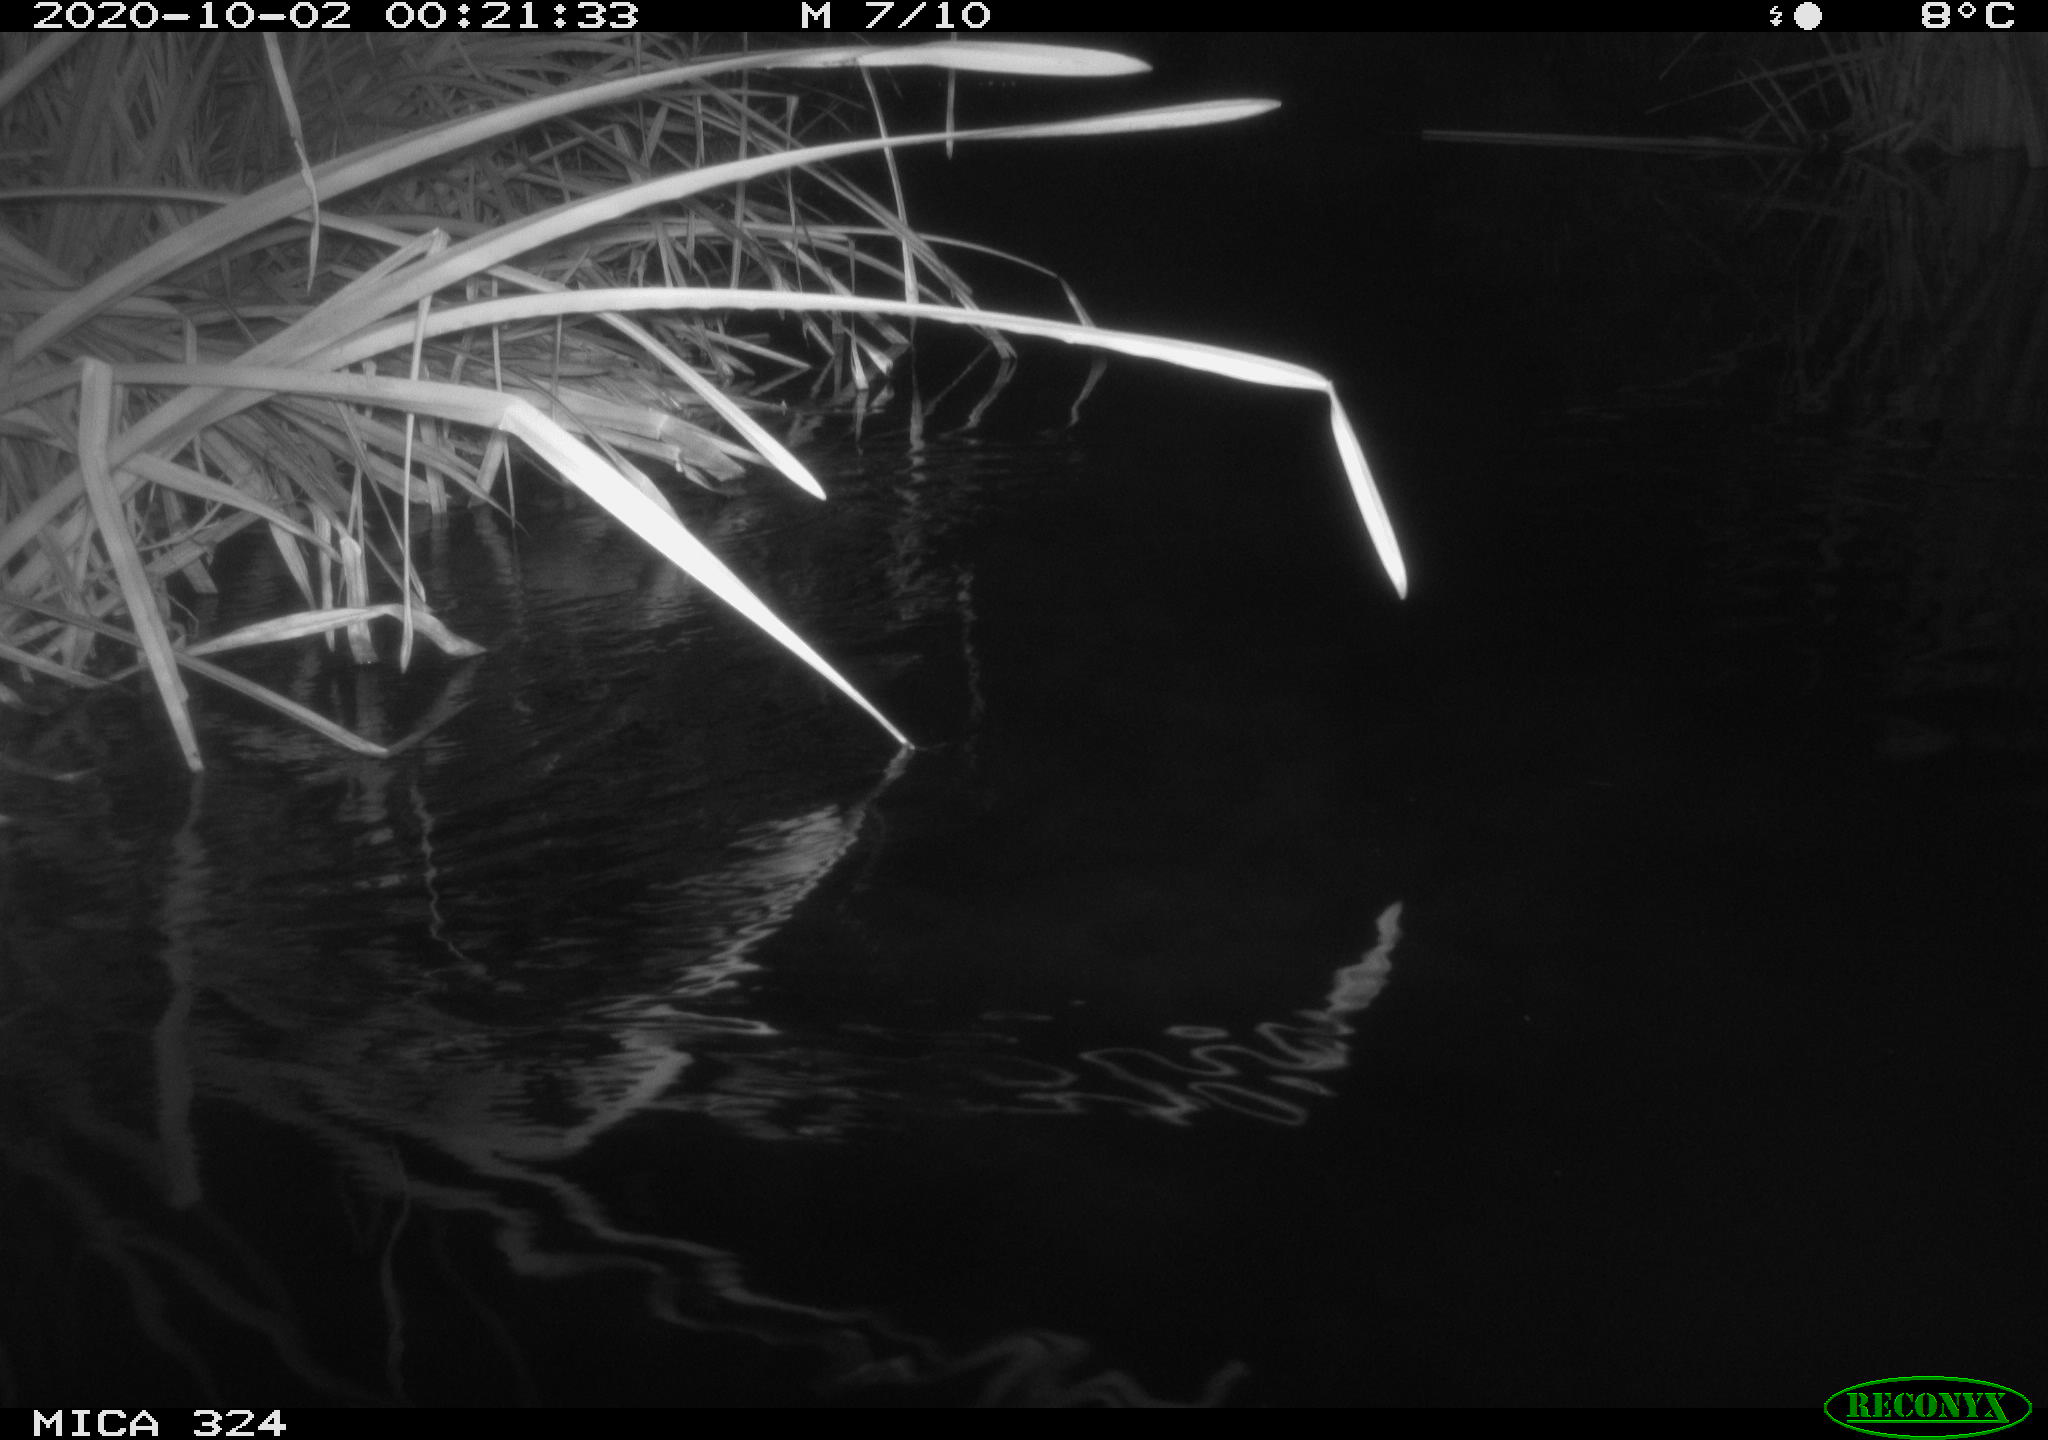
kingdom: Animalia
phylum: Chordata
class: Mammalia
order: Rodentia
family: Muridae
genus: Rattus
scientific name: Rattus norvegicus
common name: Brown rat
